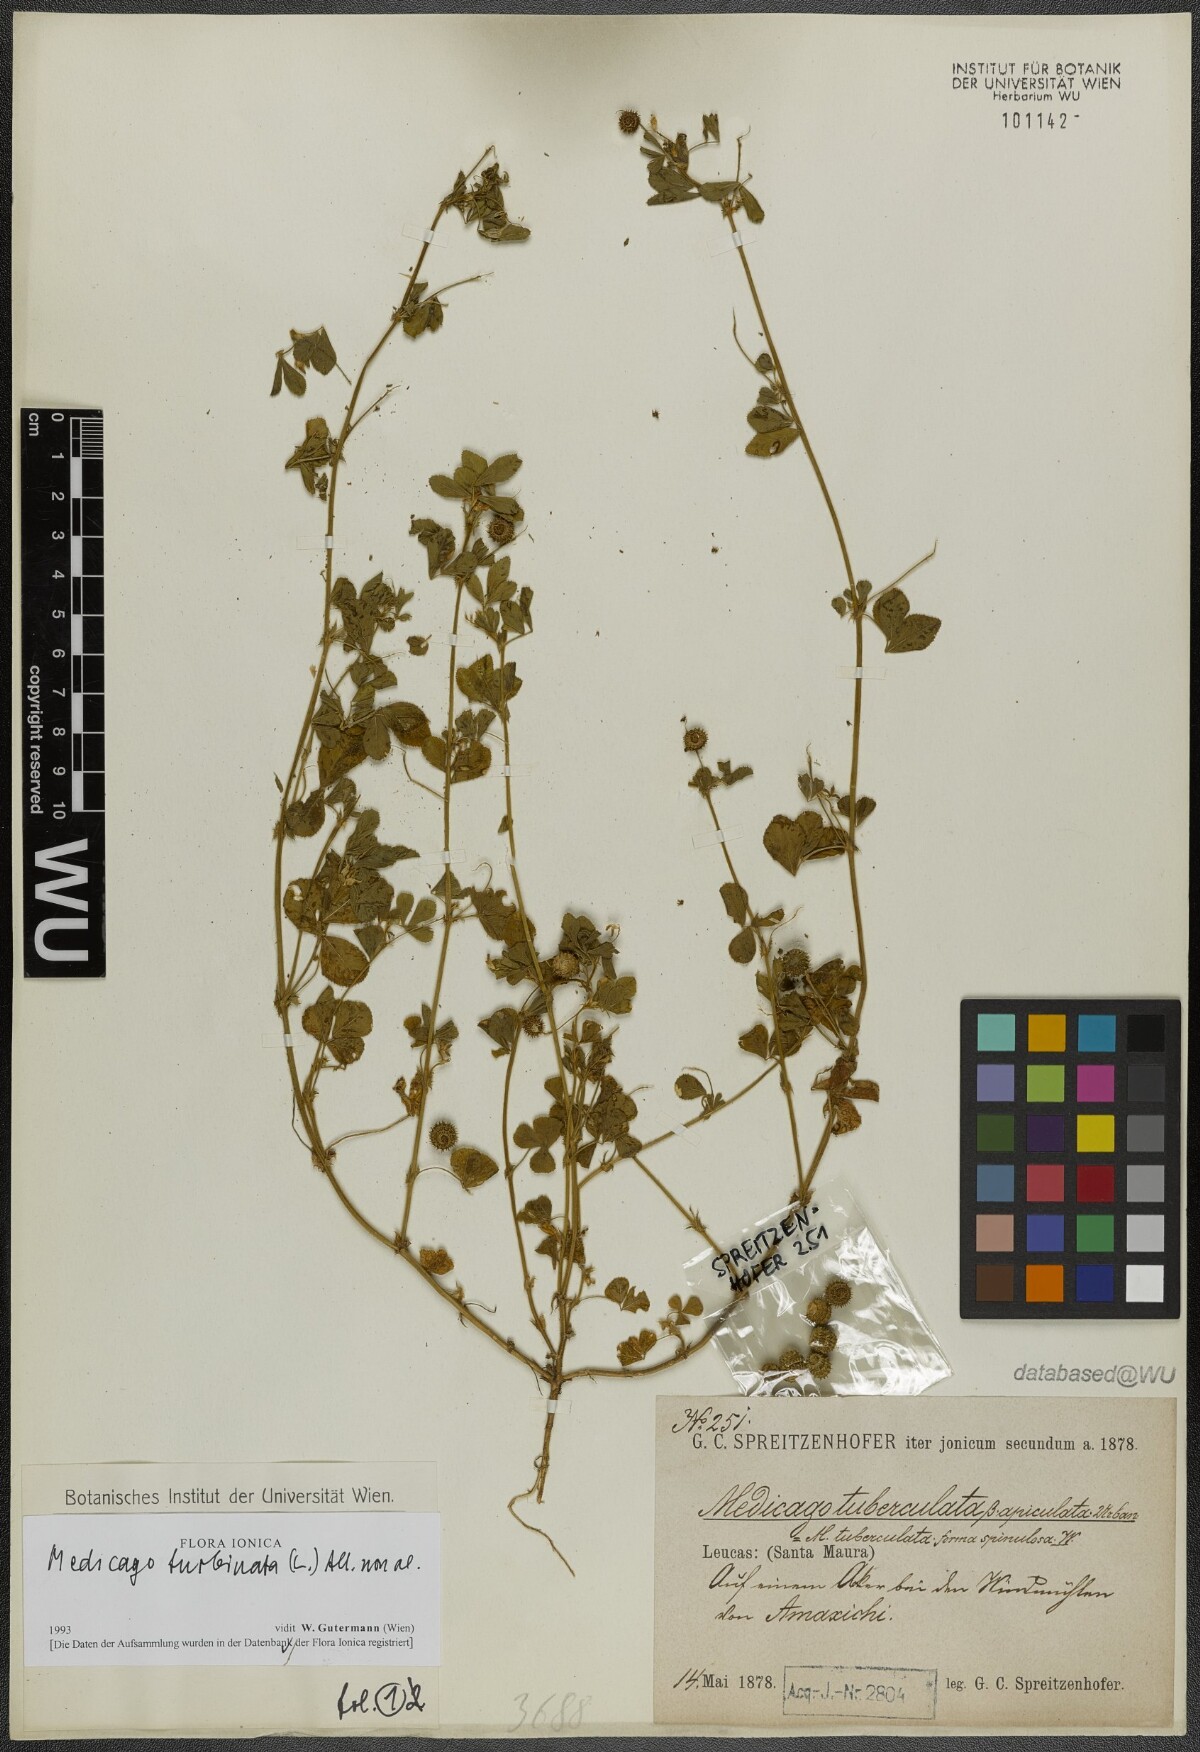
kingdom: Plantae
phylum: Tracheophyta
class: Magnoliopsida
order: Fabales
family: Fabaceae
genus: Medicago
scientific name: Medicago turbinata
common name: Southern medick
